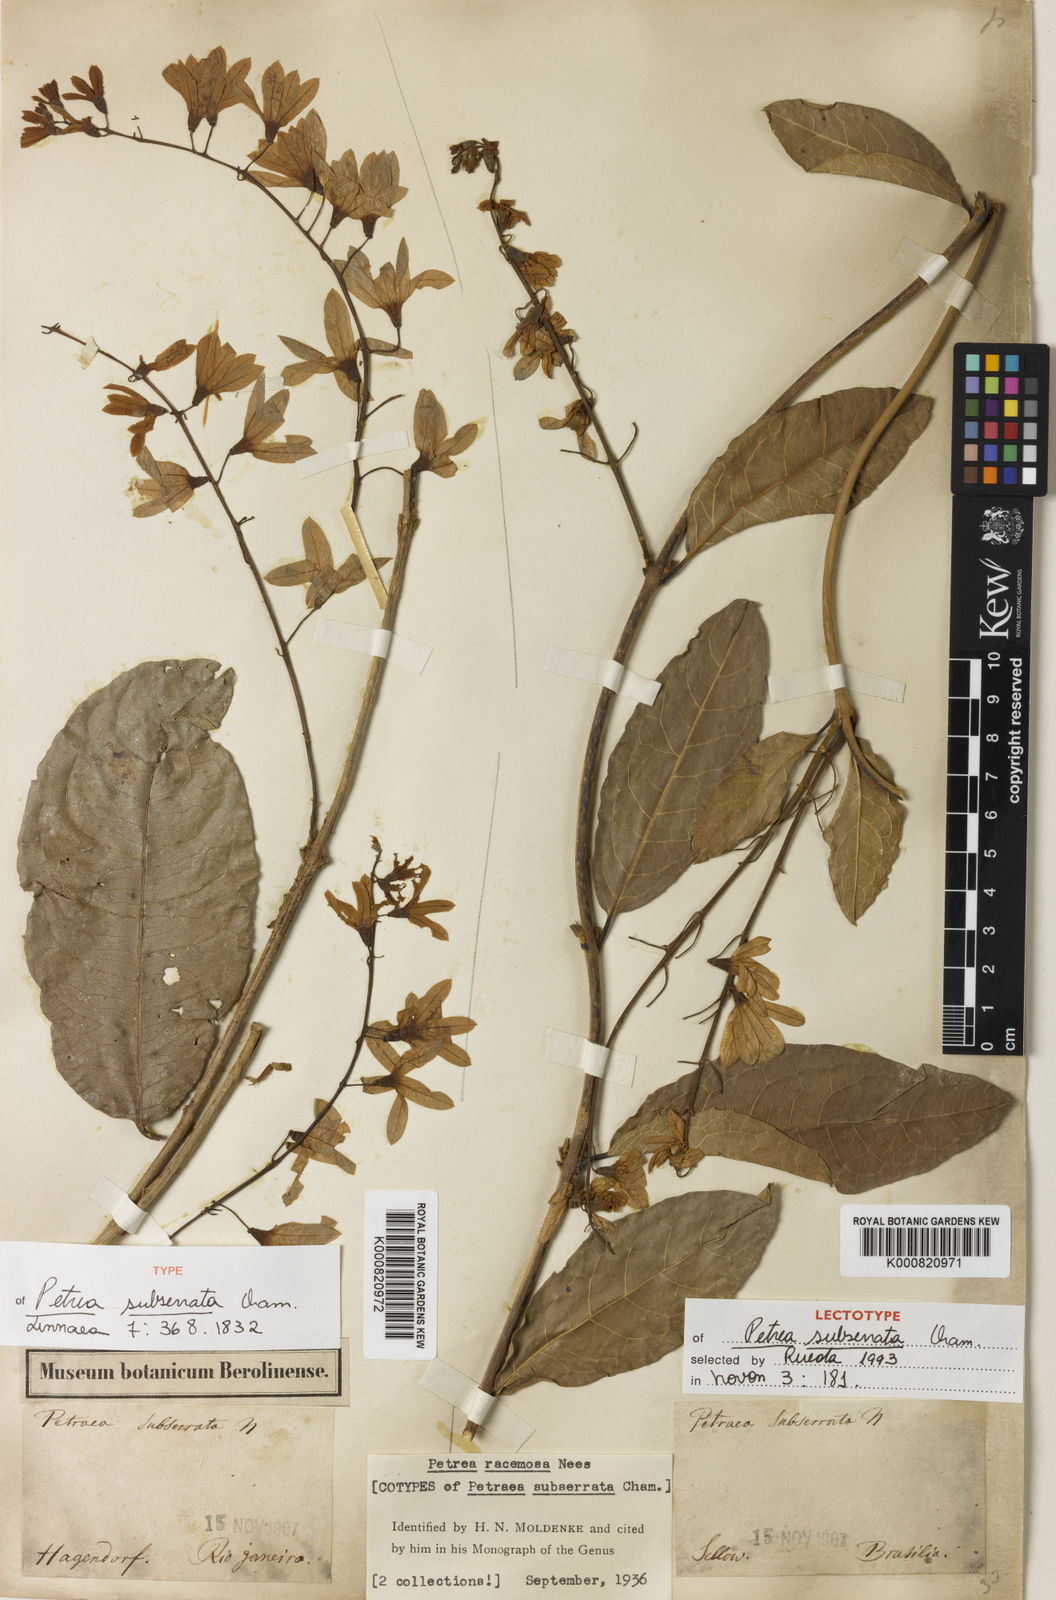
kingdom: Plantae
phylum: Tracheophyta
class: Magnoliopsida
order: Lamiales
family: Verbenaceae
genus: Petrea
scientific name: Petrea volubilis
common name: Queen's-wreath
